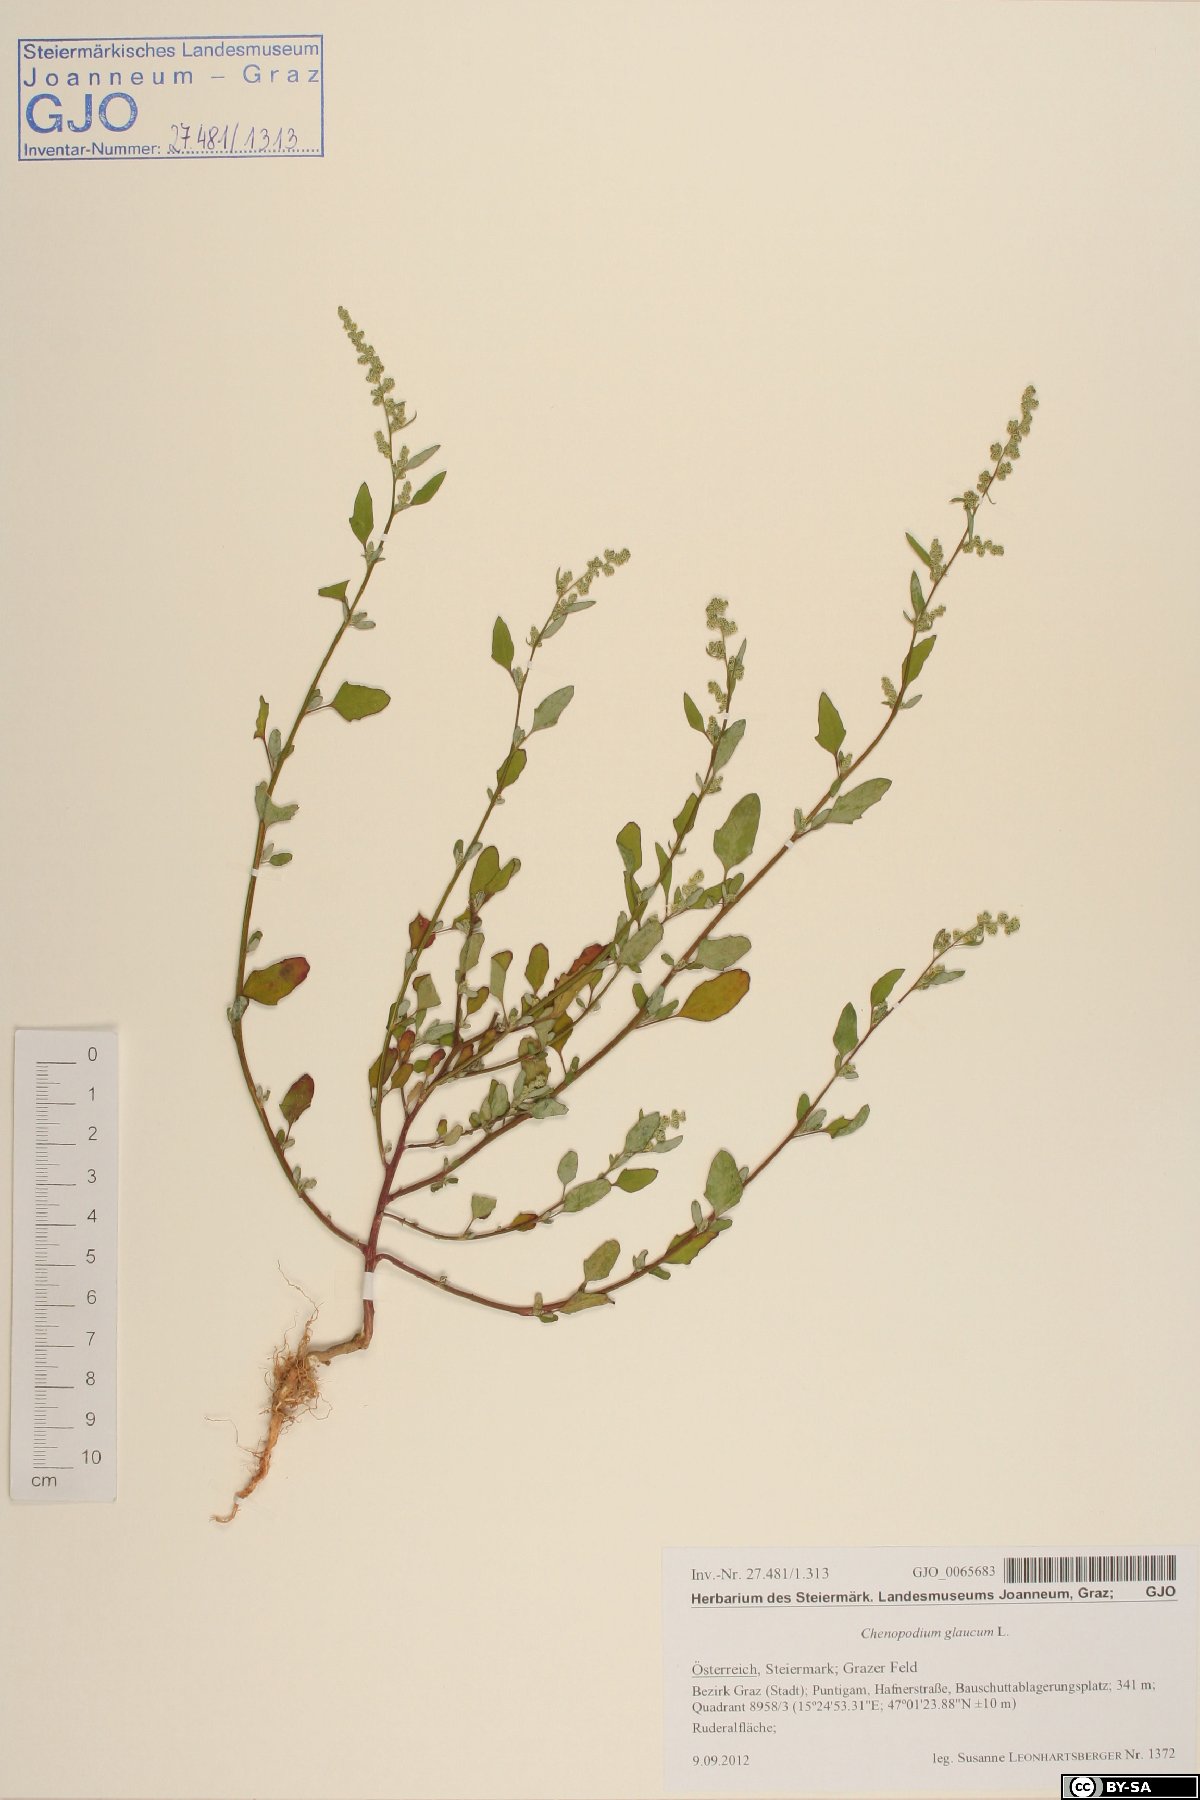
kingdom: Plantae
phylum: Tracheophyta
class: Magnoliopsida
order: Caryophyllales
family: Amaranthaceae
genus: Oxybasis
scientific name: Oxybasis glauca
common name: Glaucous goosefoot
